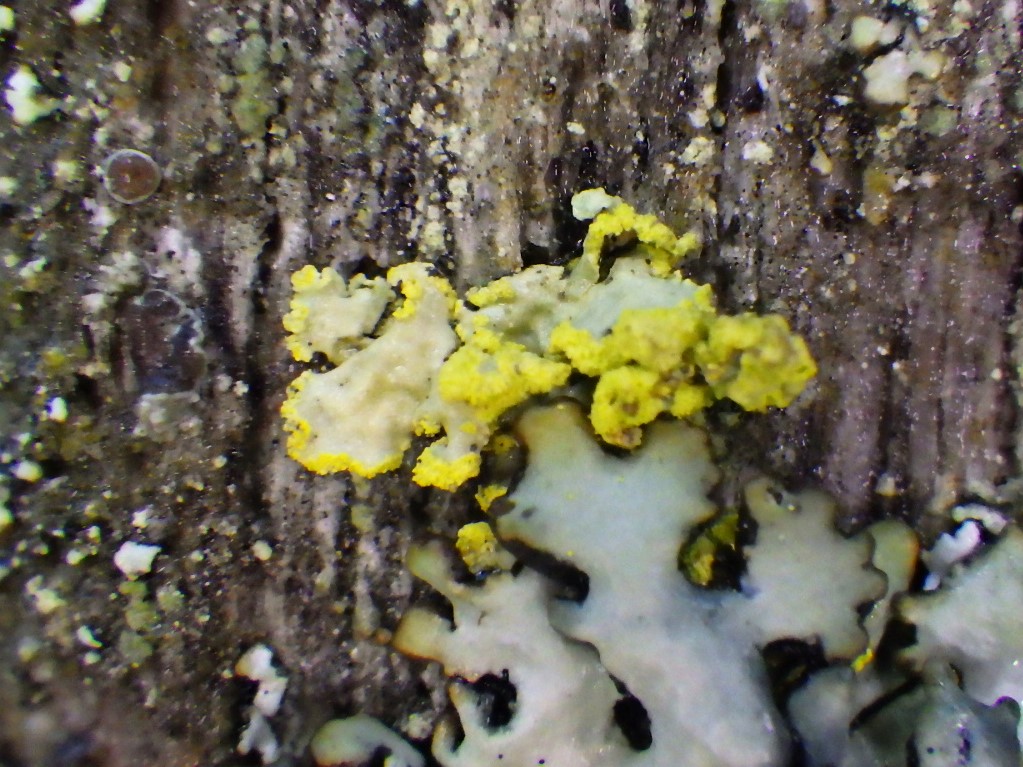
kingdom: Fungi
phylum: Ascomycota
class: Lecanoromycetes
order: Lecanorales
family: Parmeliaceae
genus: Vulpicida
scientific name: Vulpicida pinastri
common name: gul kruslav
